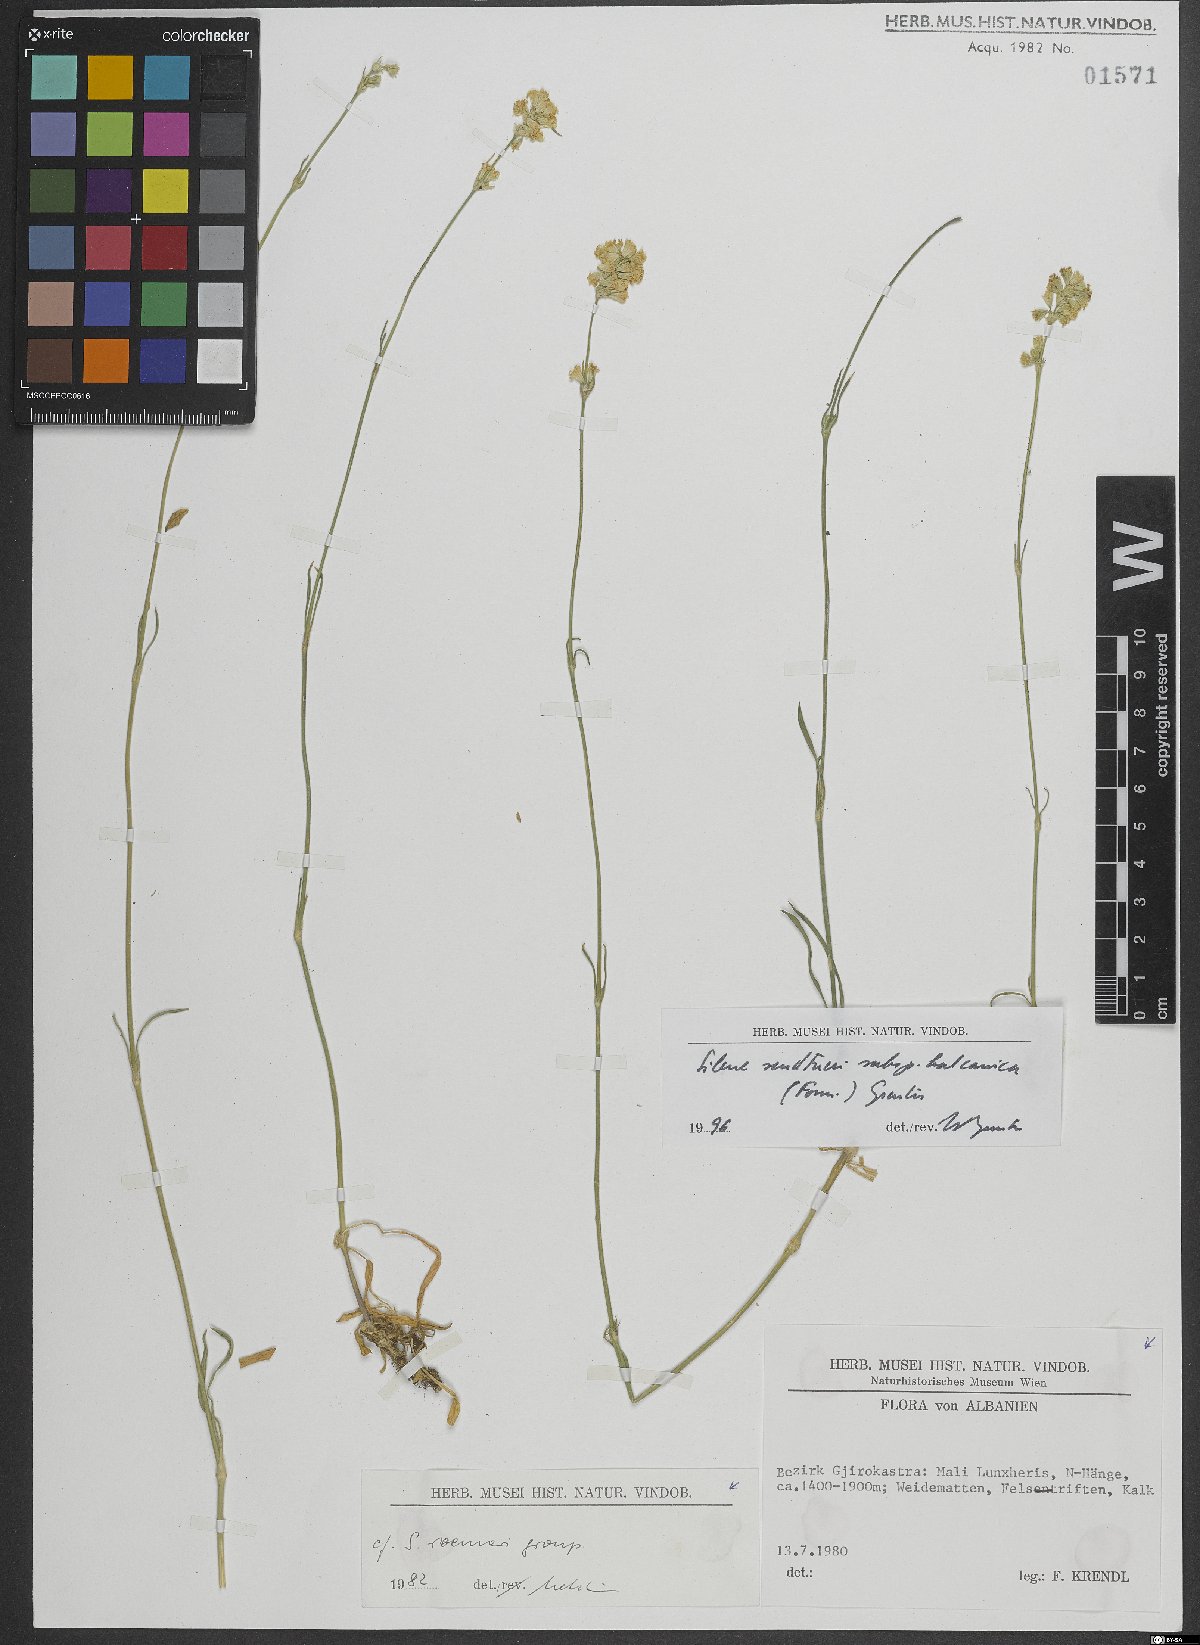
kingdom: Plantae
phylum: Tracheophyta
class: Magnoliopsida
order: Caryophyllales
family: Caryophyllaceae
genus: Silene
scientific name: Silene sendtneri
